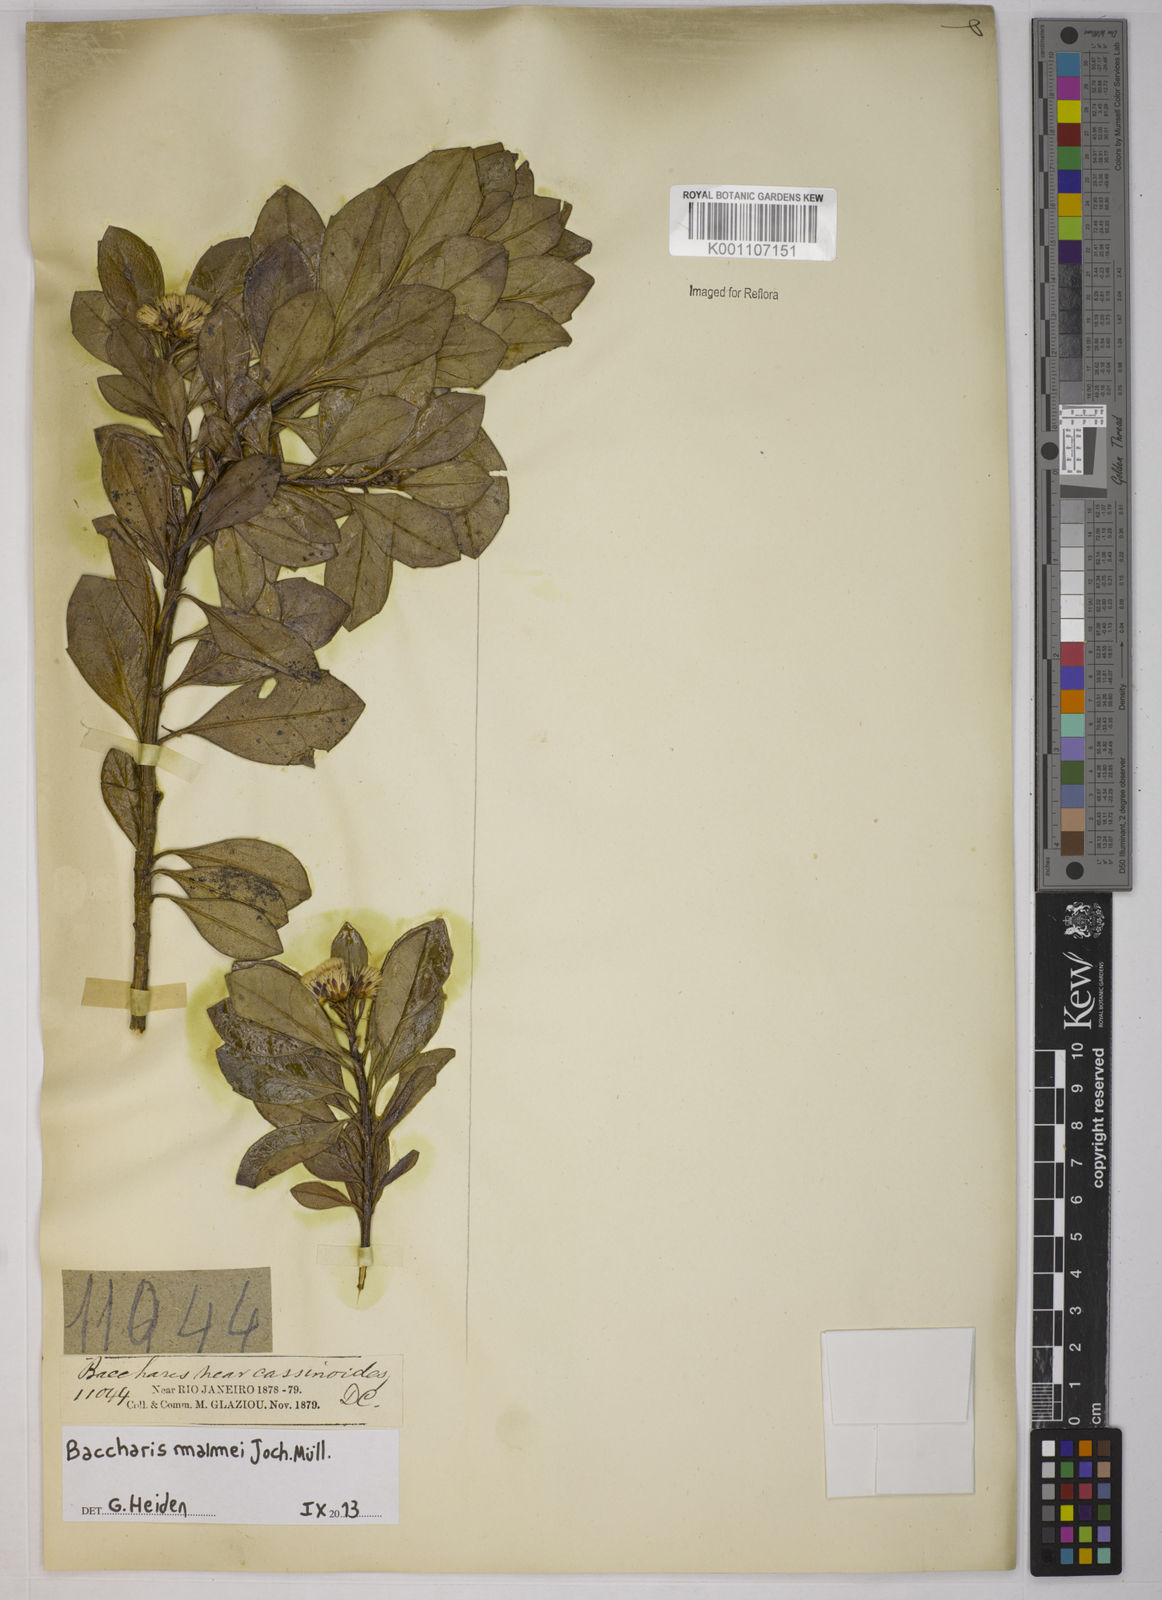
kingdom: Plantae
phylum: Tracheophyta
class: Magnoliopsida
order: Asterales
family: Asteraceae
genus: Baccharis
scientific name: Baccharis
